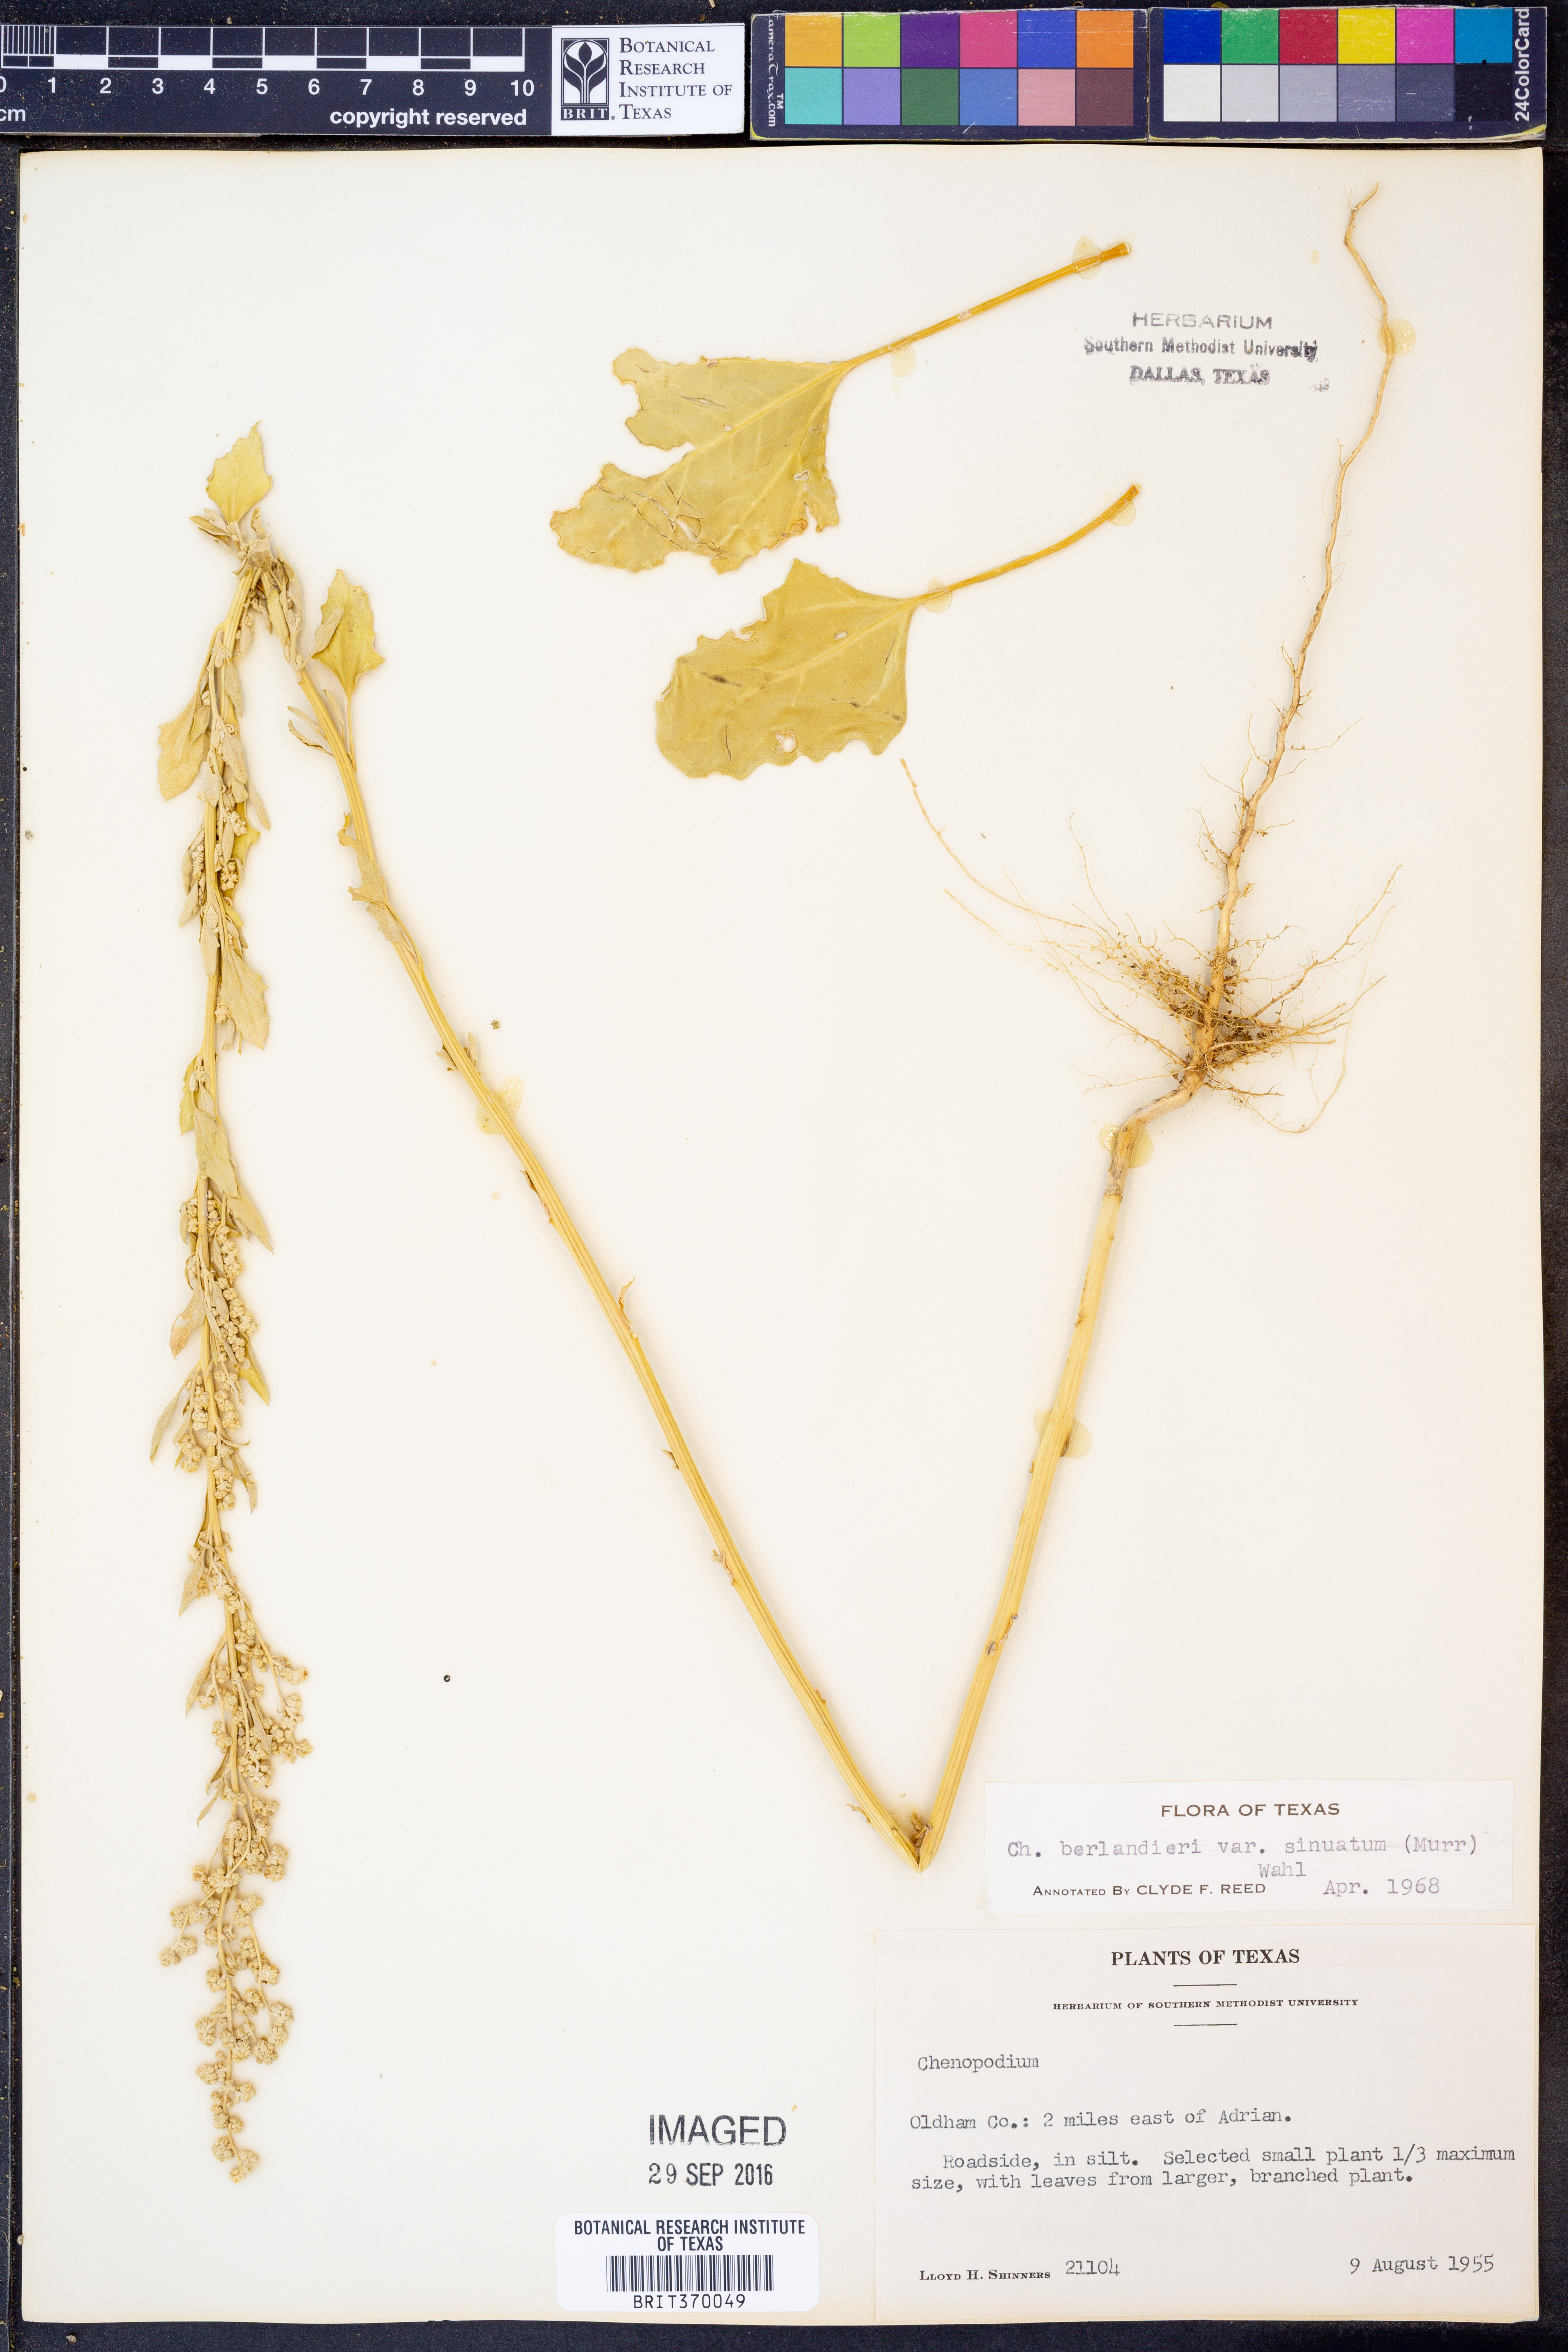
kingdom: Plantae
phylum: Tracheophyta
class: Magnoliopsida
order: Caryophyllales
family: Amaranthaceae
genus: Chenopodium
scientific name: Chenopodium berlandieri
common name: Pit-seed goosefoot
